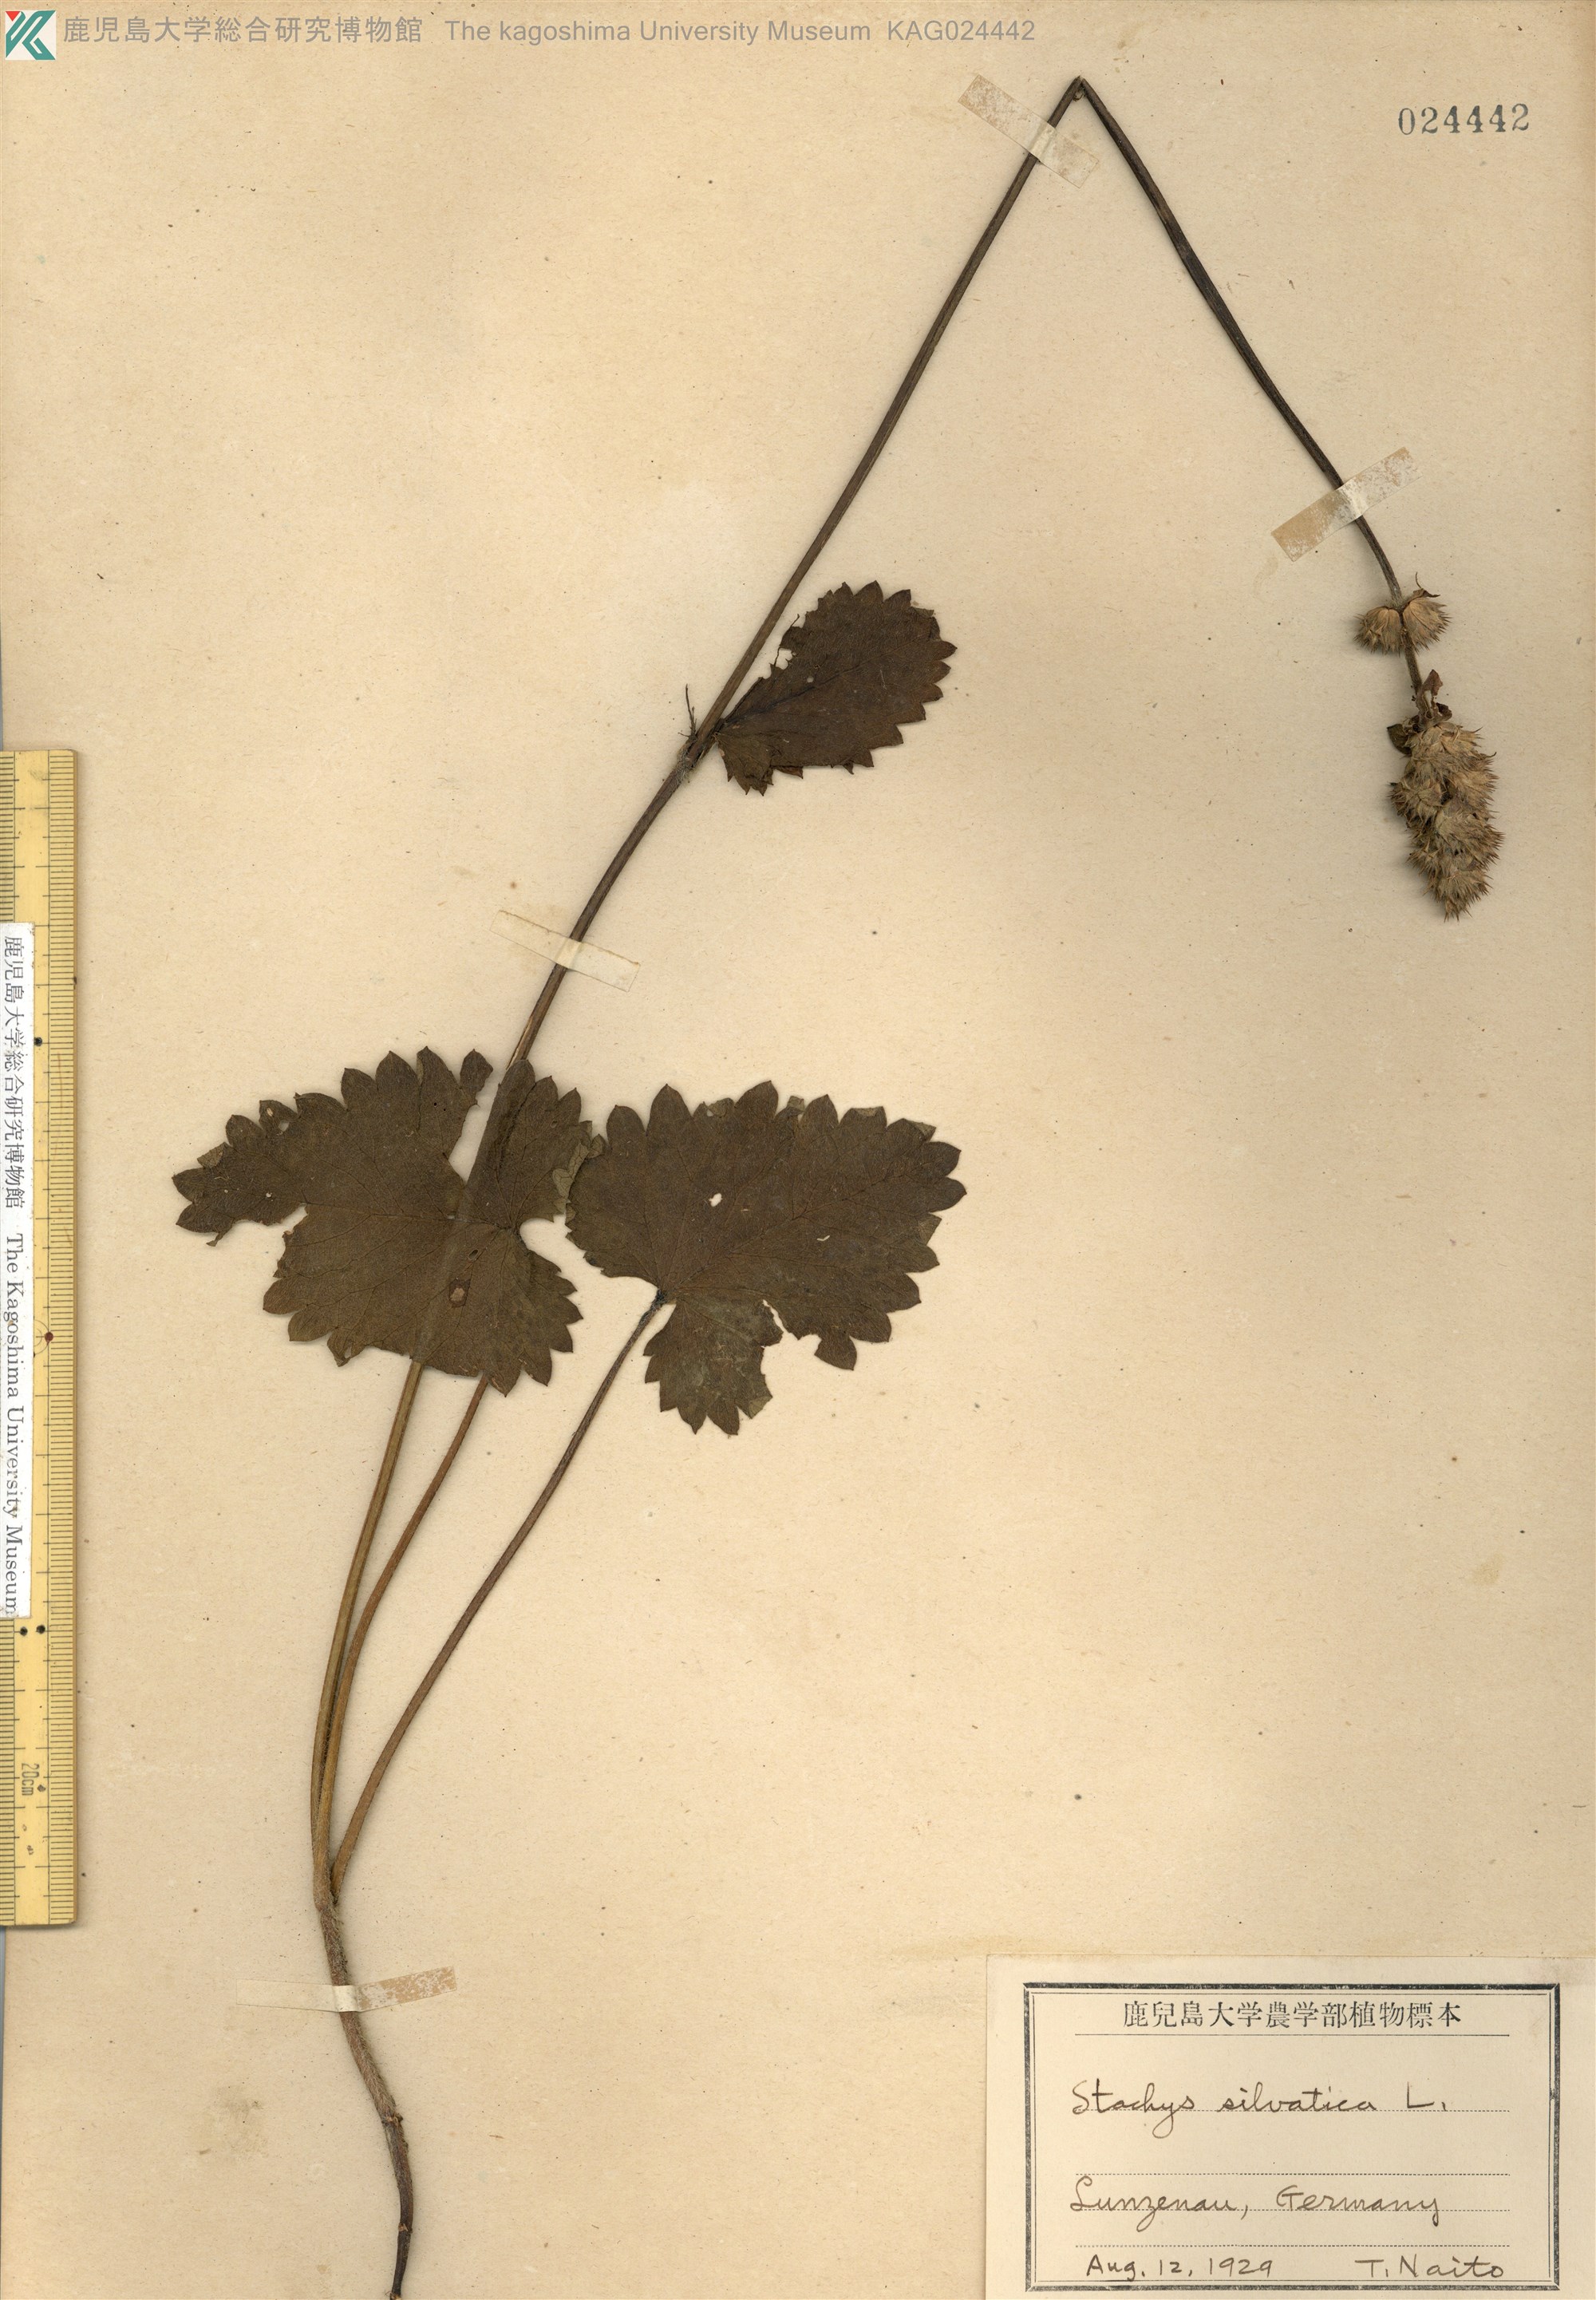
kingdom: Plantae
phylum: Tracheophyta
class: Magnoliopsida
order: Lamiales
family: Lamiaceae
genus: Stachys
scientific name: Stachys sylvatica
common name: Hedge woundwort
